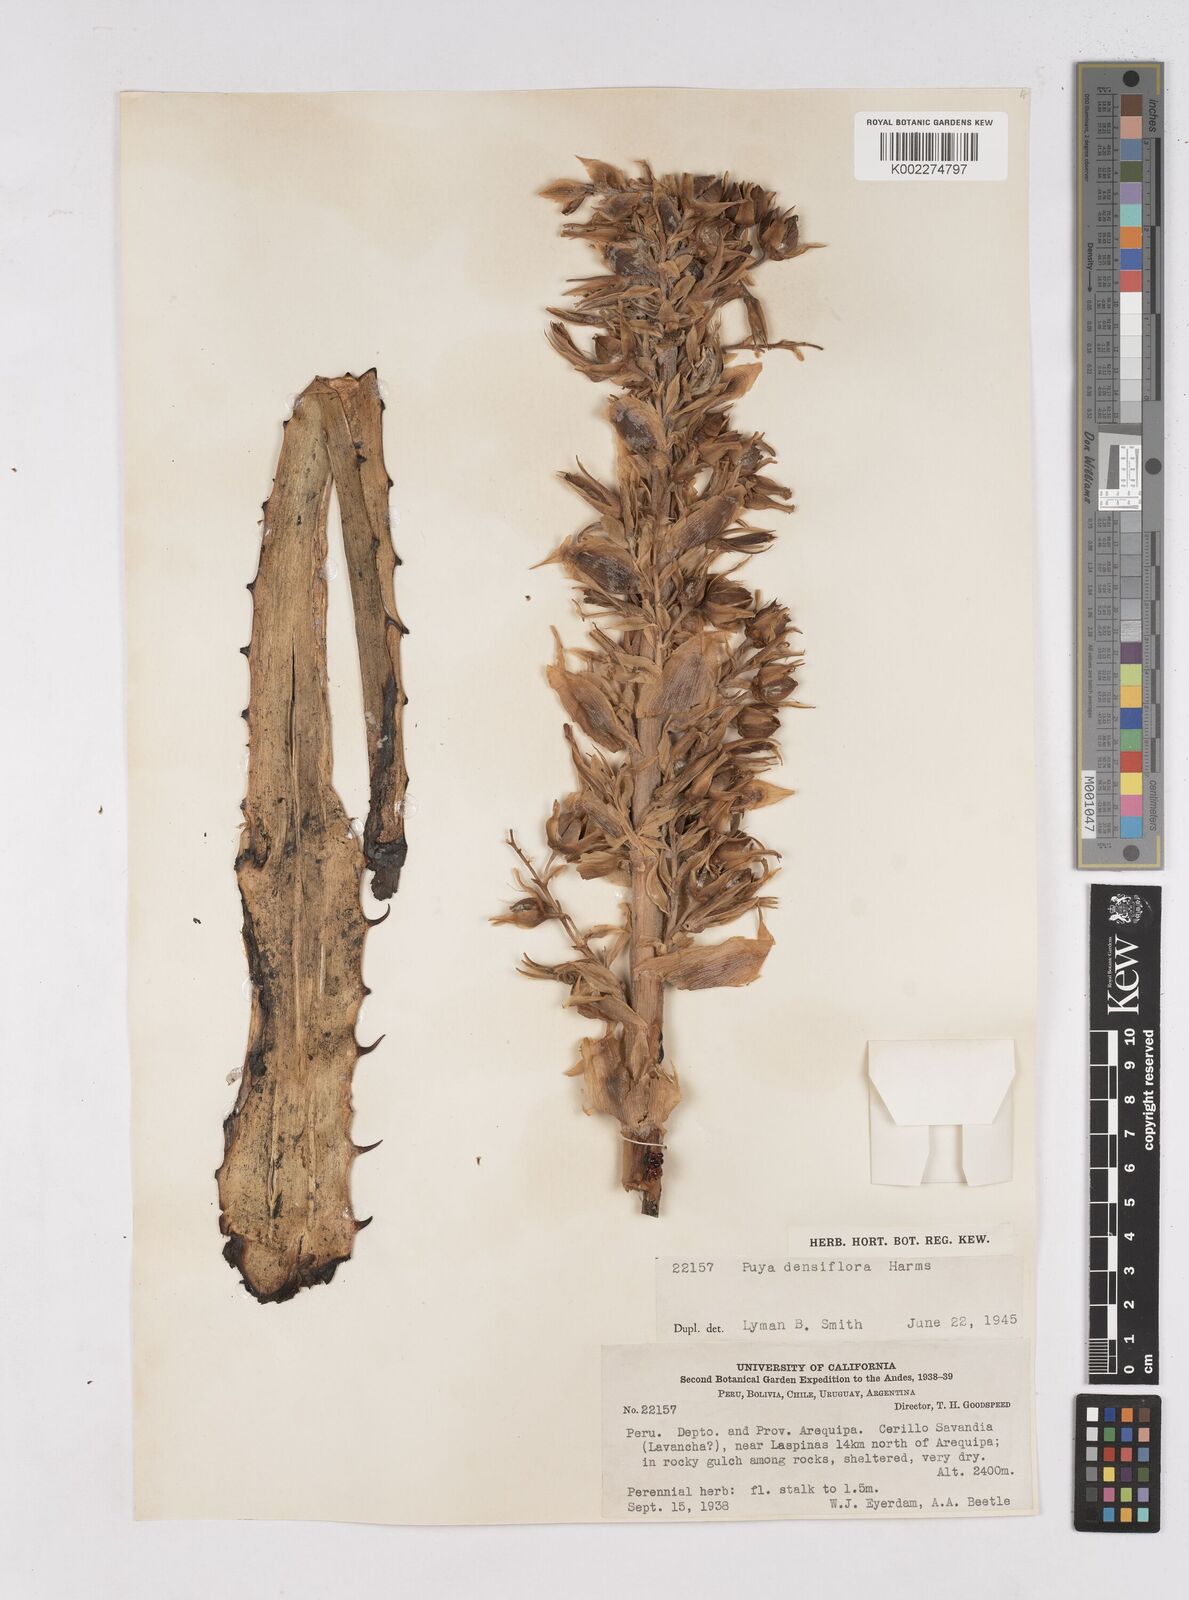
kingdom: Plantae
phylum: Tracheophyta
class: Liliopsida
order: Poales
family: Bromeliaceae
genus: Puya
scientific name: Puya densiflora
